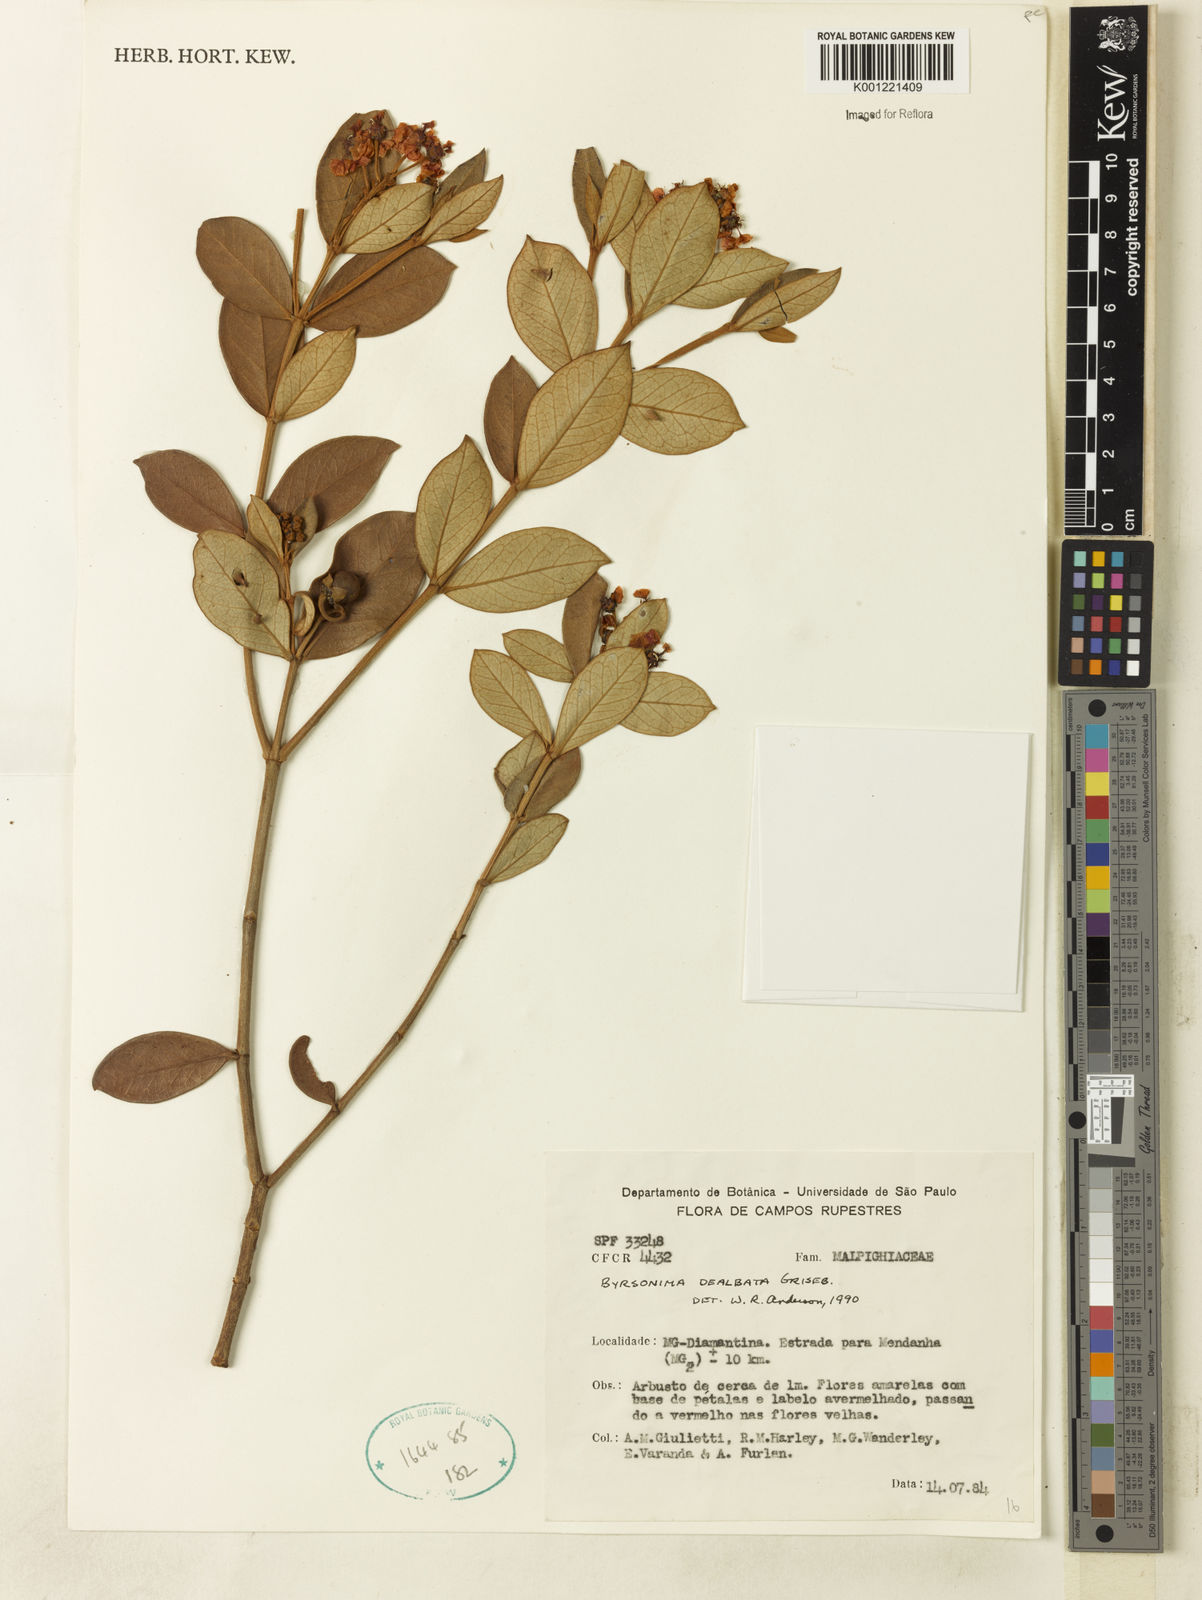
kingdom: Plantae
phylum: Tracheophyta
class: Magnoliopsida
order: Malpighiales
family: Malpighiaceae
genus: Byrsonima
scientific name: Byrsonima dealbata
